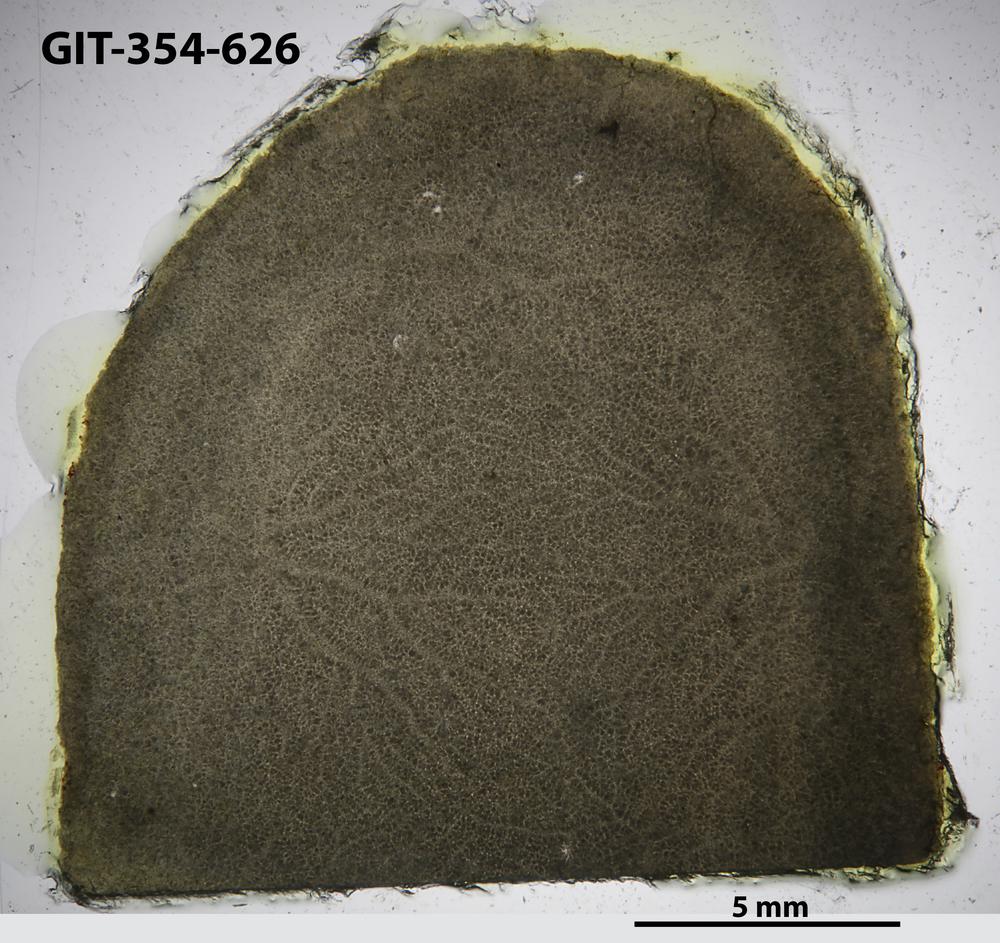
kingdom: Animalia
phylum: Porifera
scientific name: Porifera
